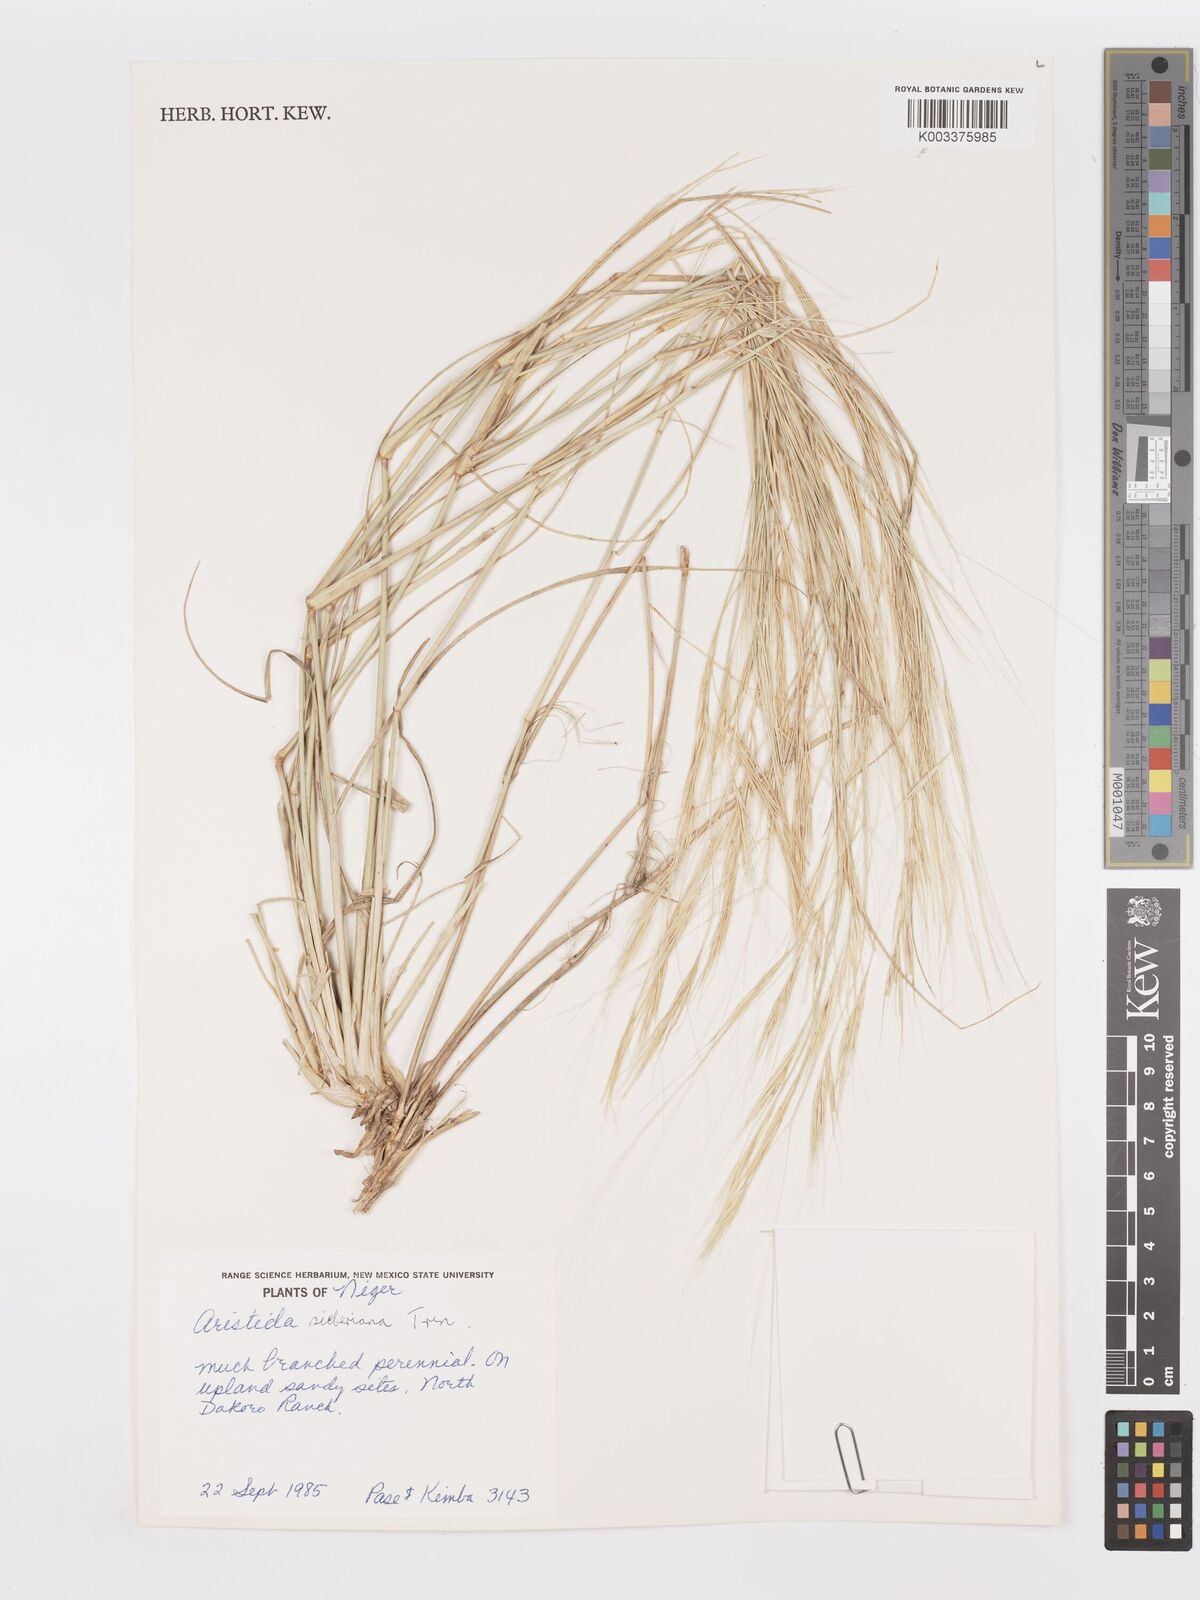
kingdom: Plantae
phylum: Tracheophyta
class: Liliopsida
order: Poales
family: Poaceae
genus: Aristida
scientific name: Aristida sieberiana
